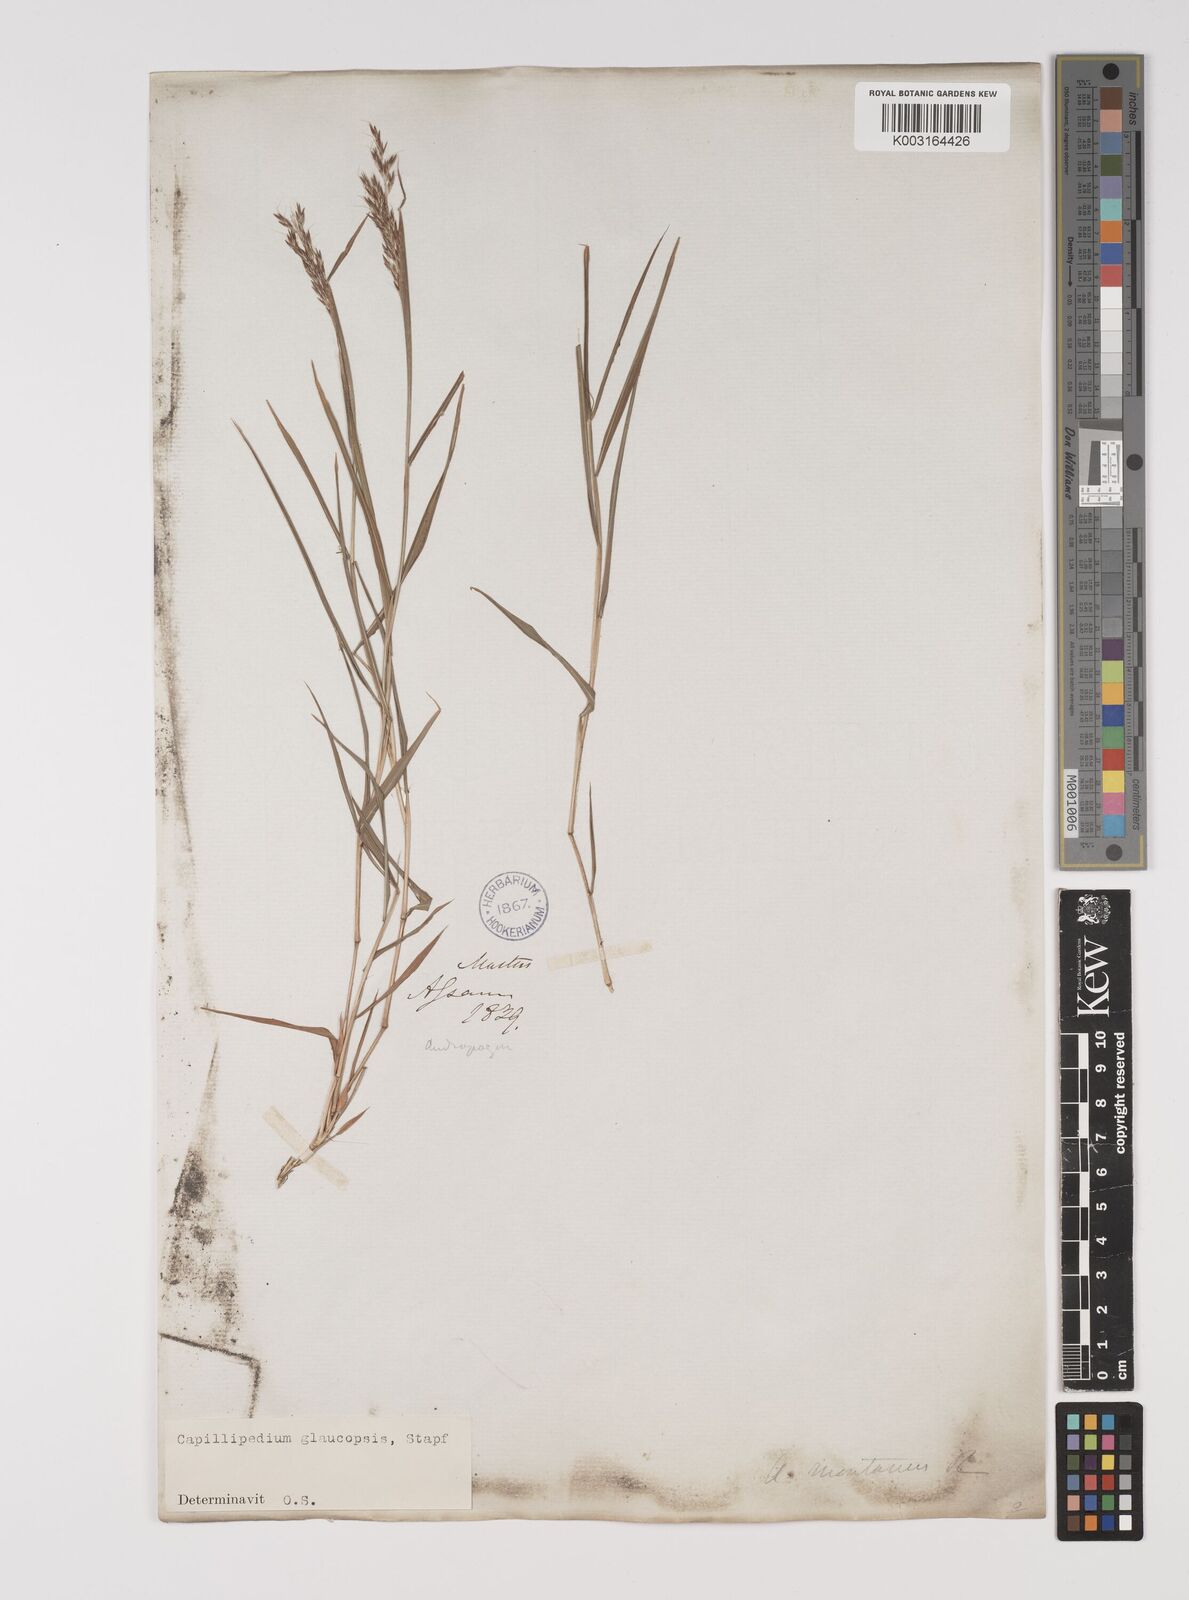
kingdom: Plantae
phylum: Tracheophyta
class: Liliopsida
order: Poales
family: Poaceae
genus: Capillipedium
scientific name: Capillipedium assimile
